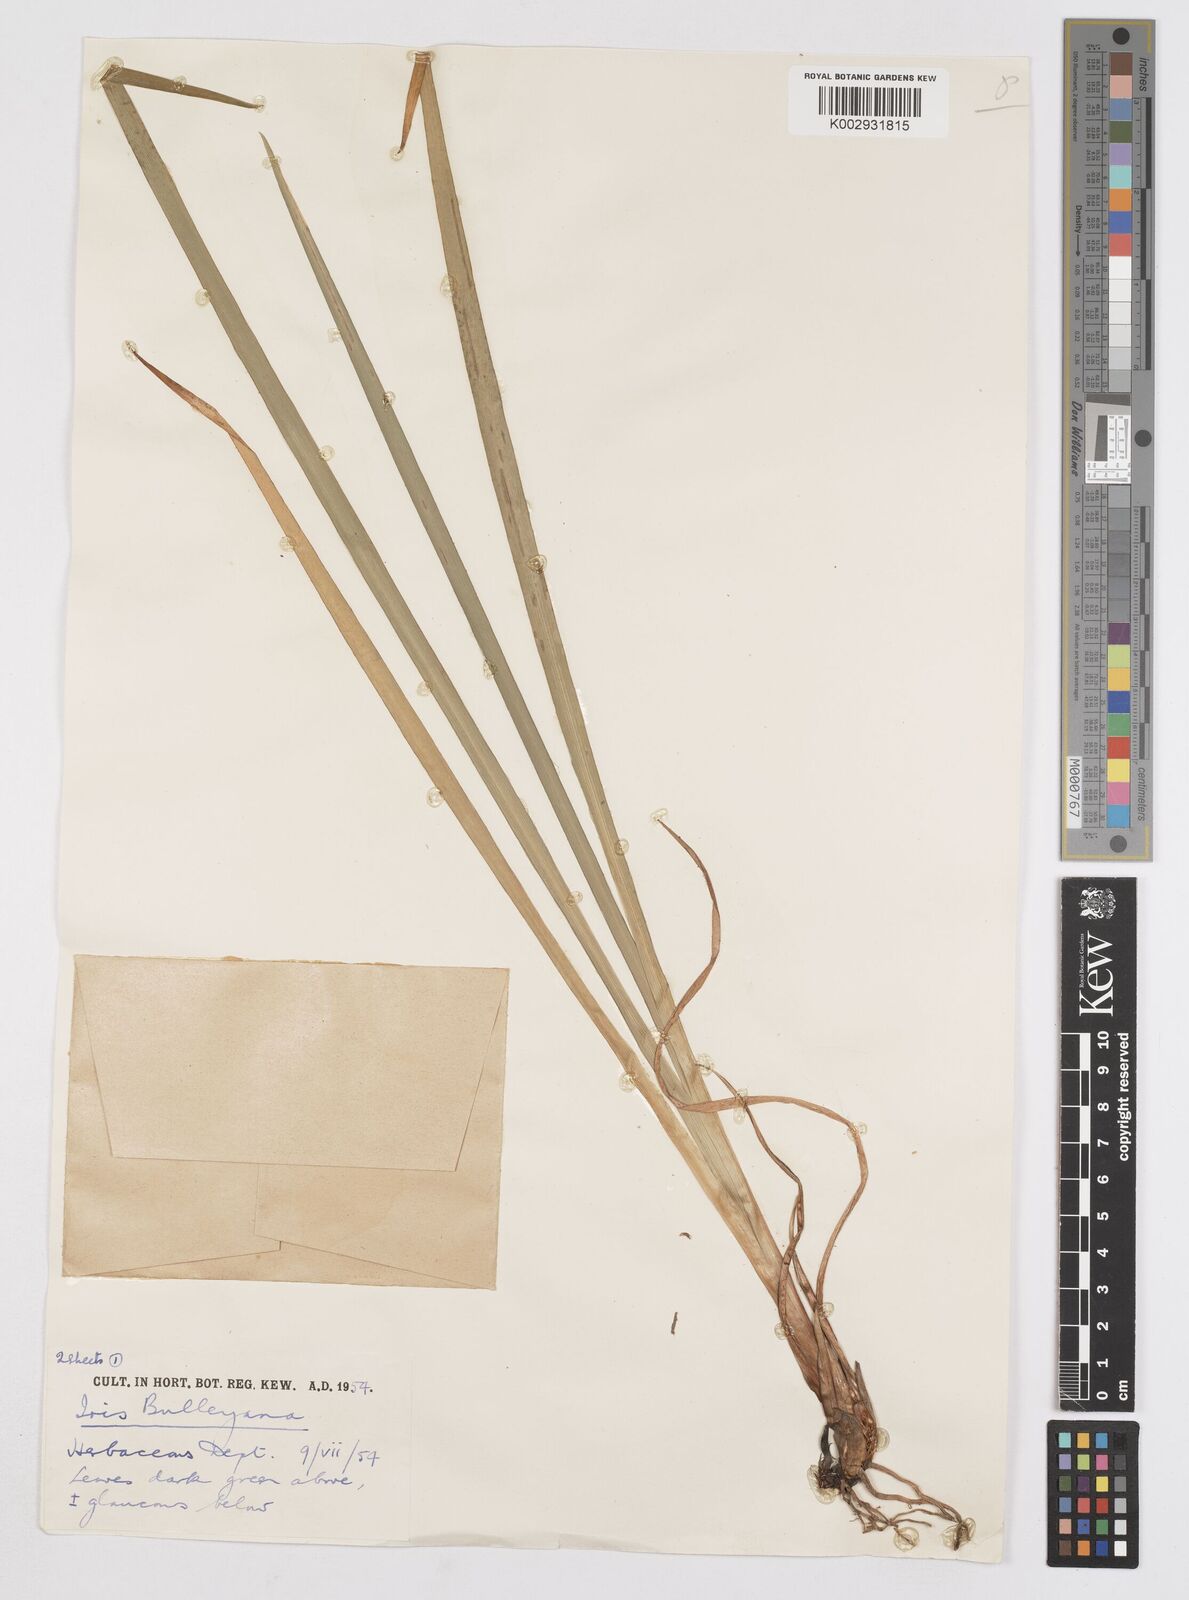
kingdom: Plantae
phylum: Tracheophyta
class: Liliopsida
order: Asparagales
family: Iridaceae
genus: Iris
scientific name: Iris clarkei
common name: Tibet iris
